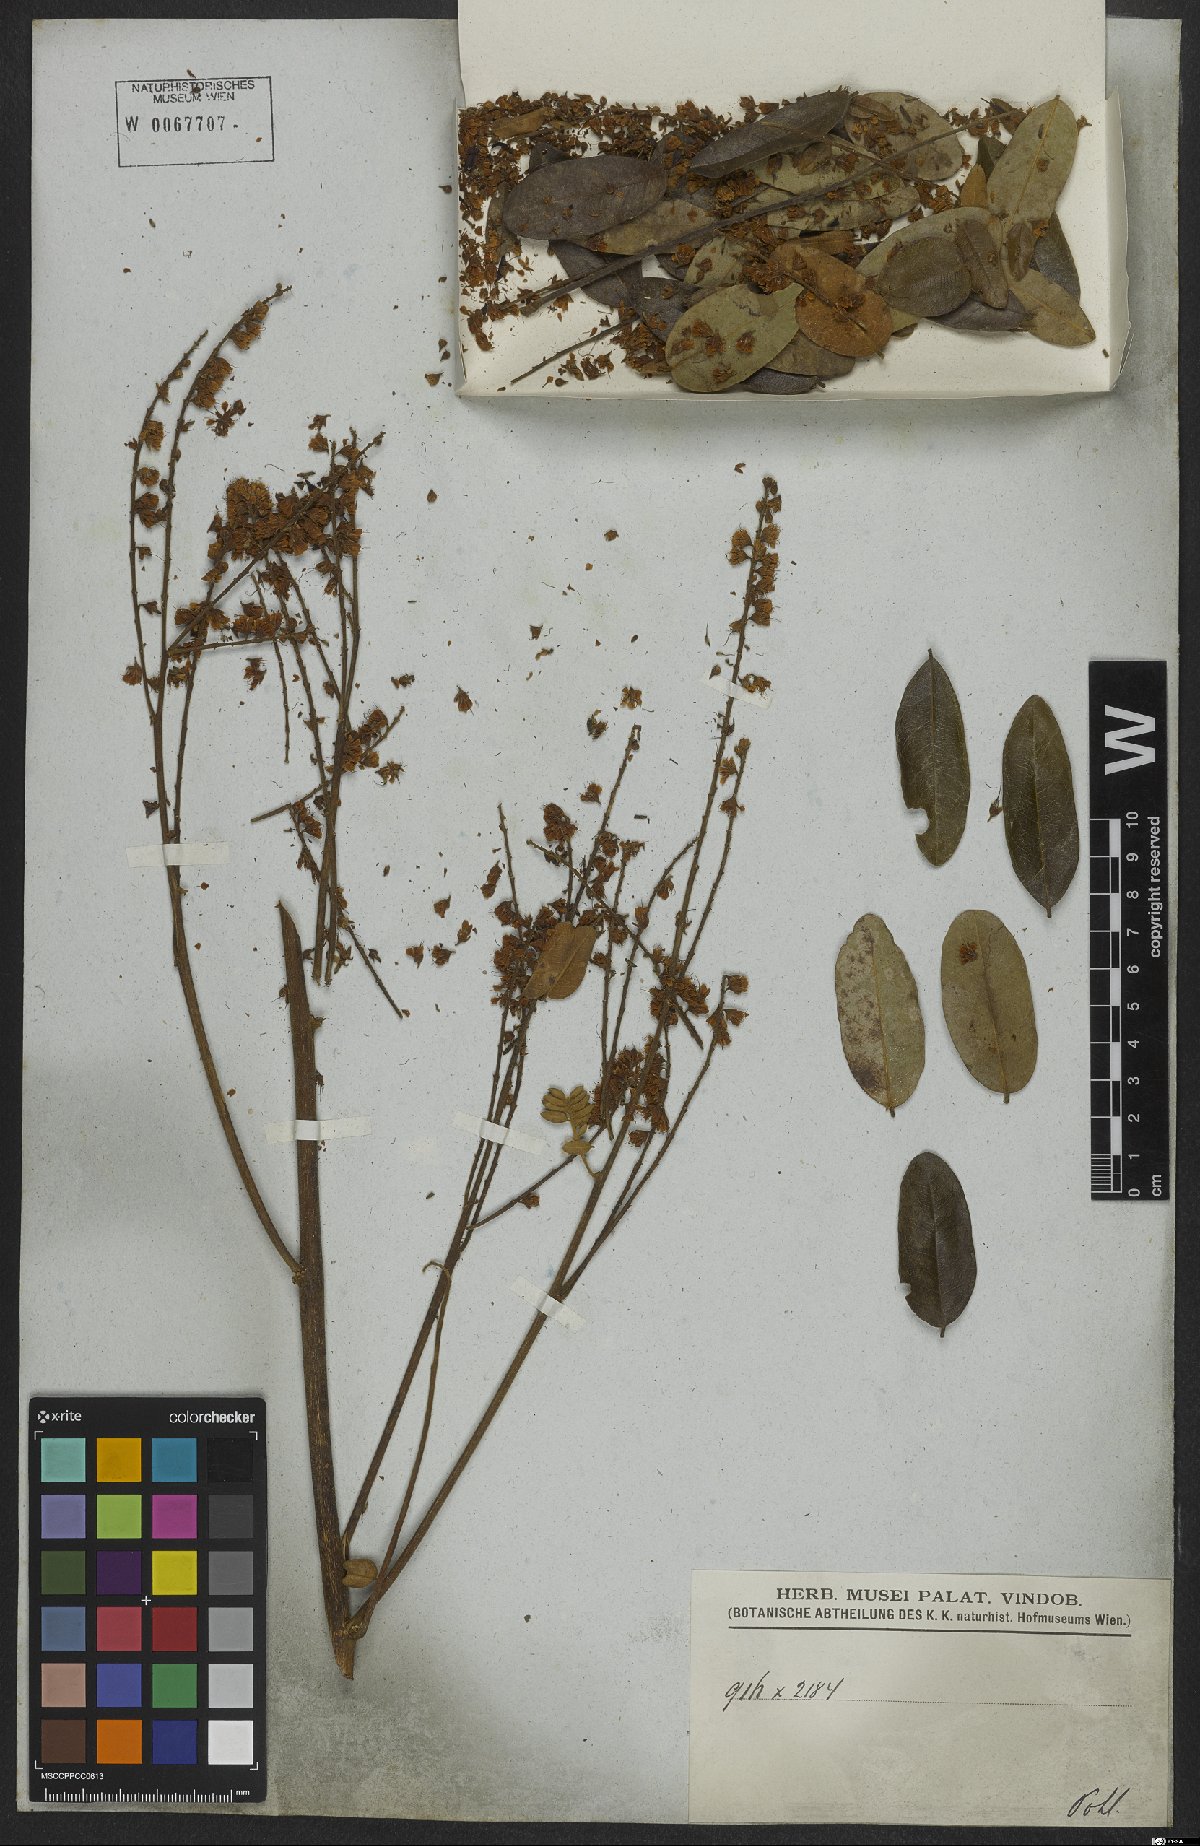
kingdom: Plantae
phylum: Tracheophyta
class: Magnoliopsida
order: Fabales
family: Fabaceae
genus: Hymenolobium
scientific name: Hymenolobium
